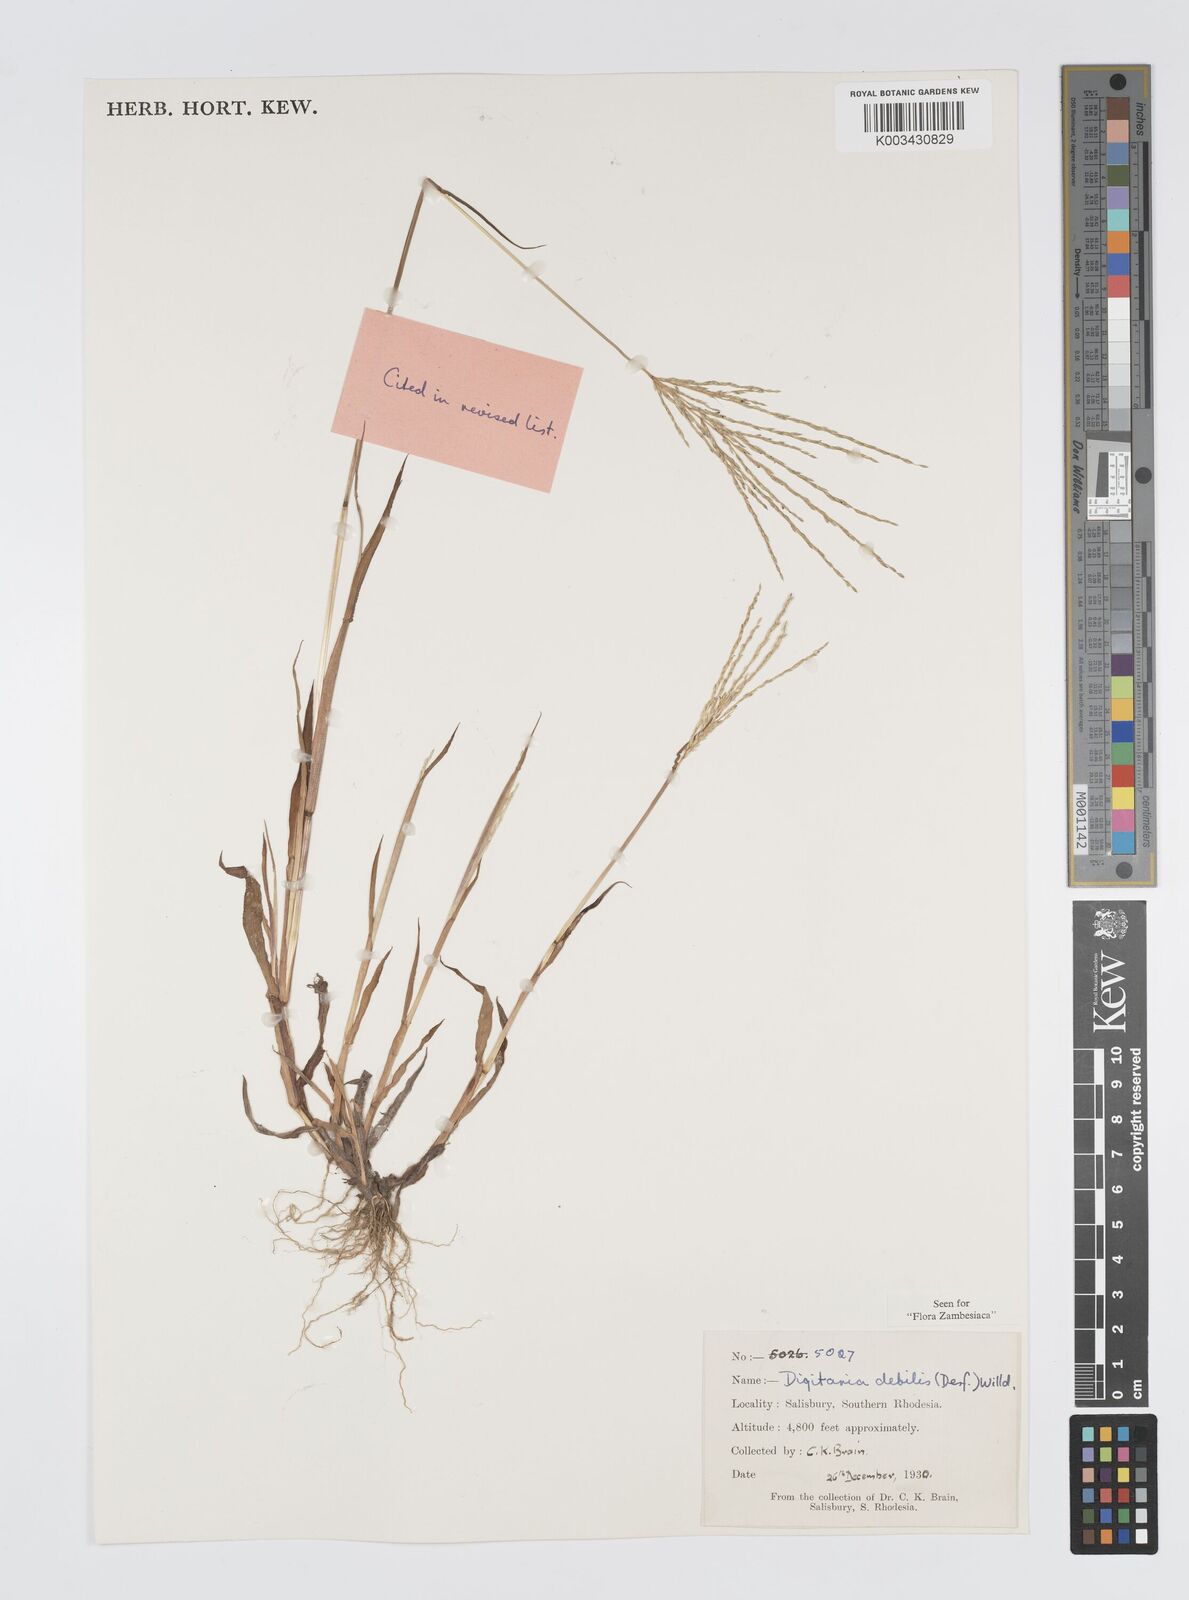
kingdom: Plantae
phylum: Tracheophyta
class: Liliopsida
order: Poales
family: Poaceae
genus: Digitaria
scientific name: Digitaria debilis
